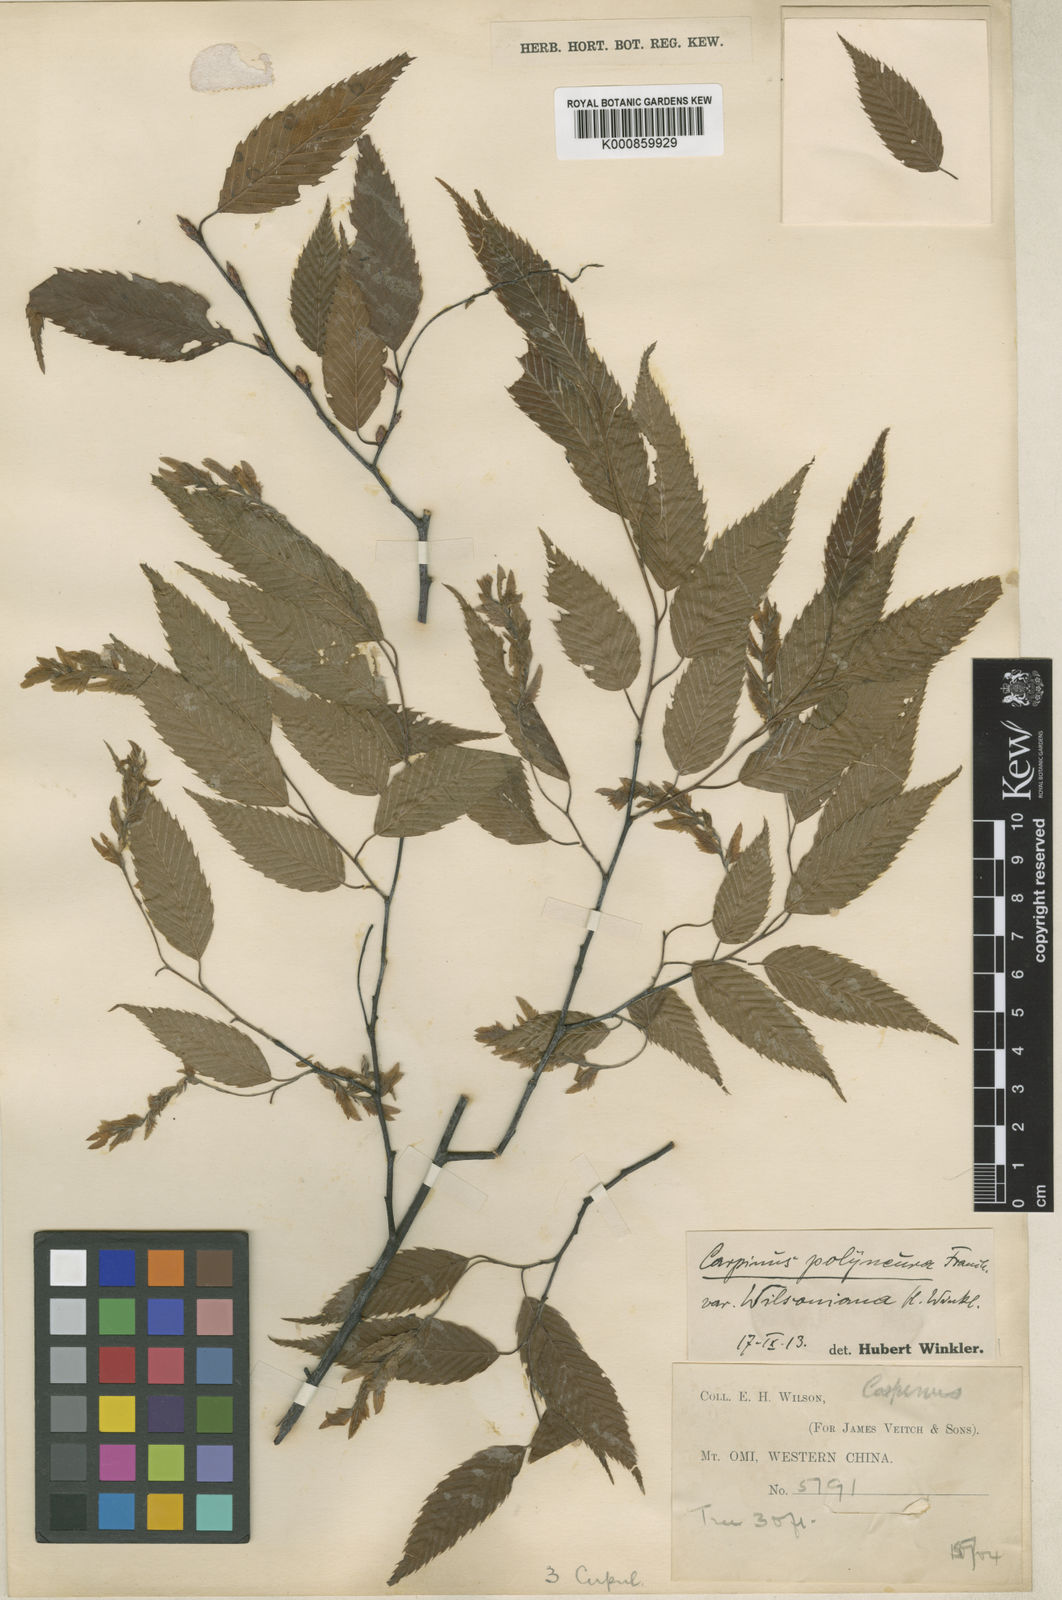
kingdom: Plantae
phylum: Tracheophyta
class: Magnoliopsida
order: Fagales
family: Betulaceae
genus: Carpinus
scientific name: Carpinus polyneura
